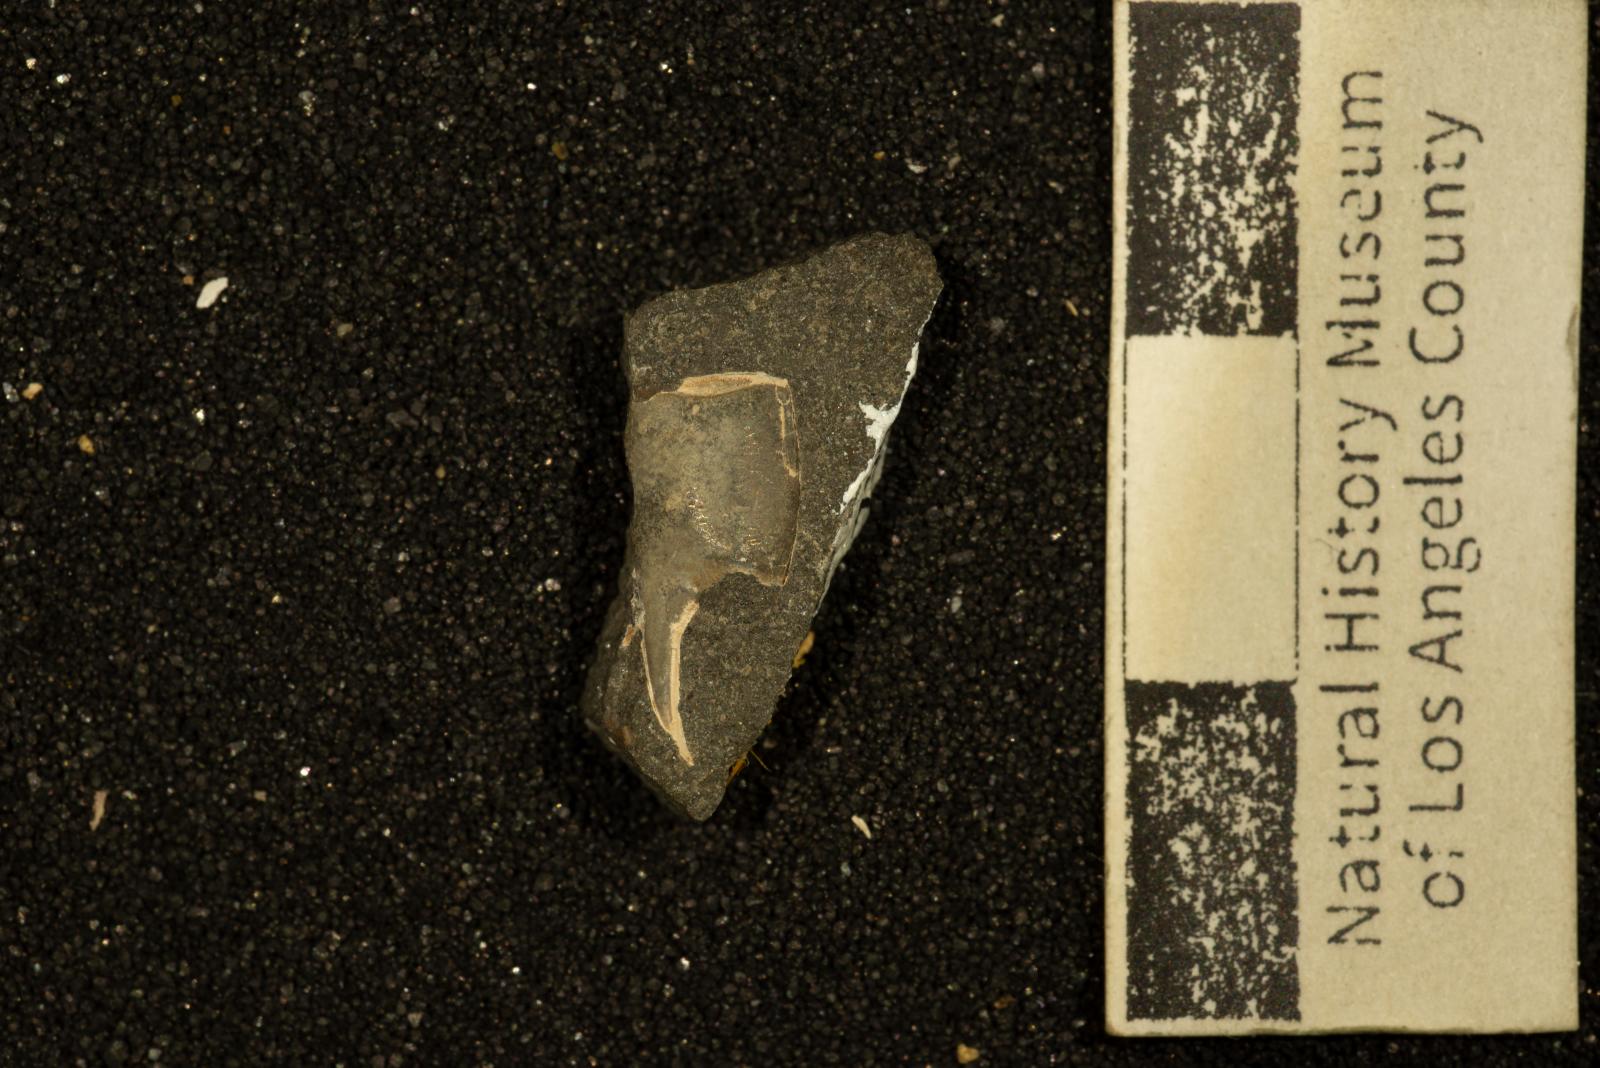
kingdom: Animalia
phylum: Arthropoda
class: Malacostraca
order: Decapoda
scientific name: Decapoda
